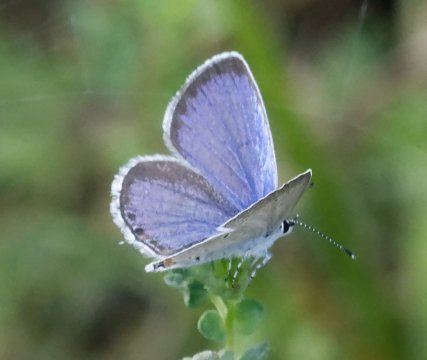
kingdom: Animalia
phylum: Arthropoda
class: Insecta
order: Lepidoptera
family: Lycaenidae
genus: Elkalyce
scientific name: Elkalyce comyntas
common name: Eastern Tailed-Blue
